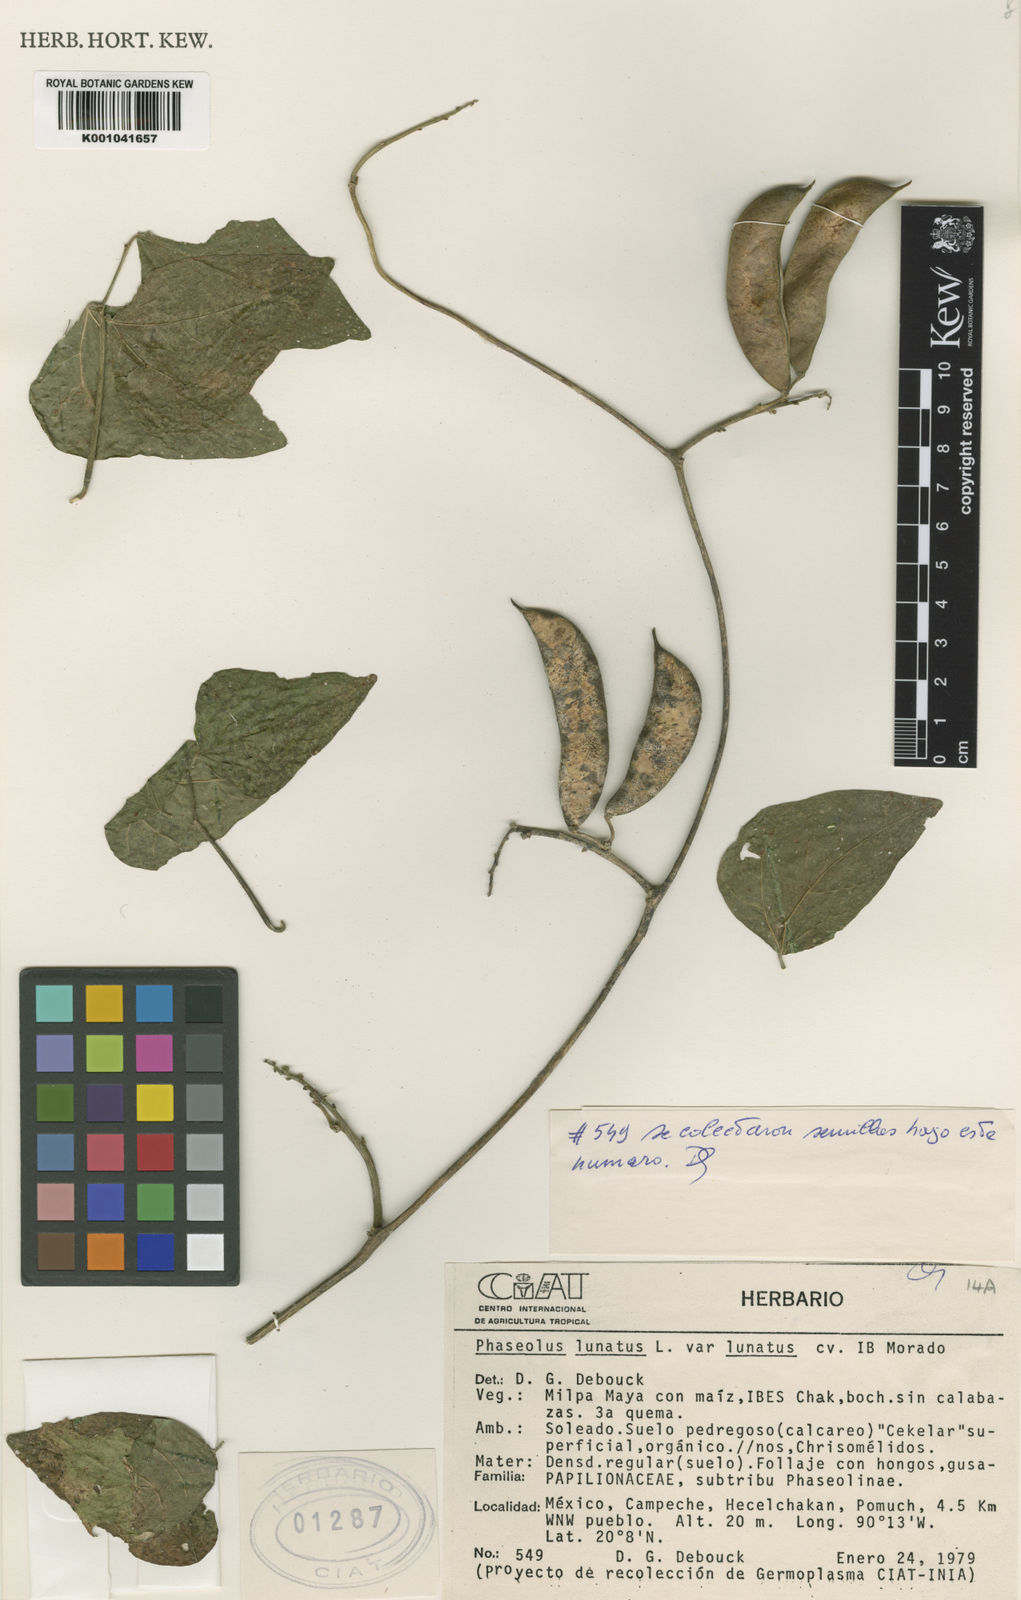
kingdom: Plantae
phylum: Tracheophyta
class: Magnoliopsida
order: Fabales
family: Fabaceae
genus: Phaseolus
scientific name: Phaseolus
